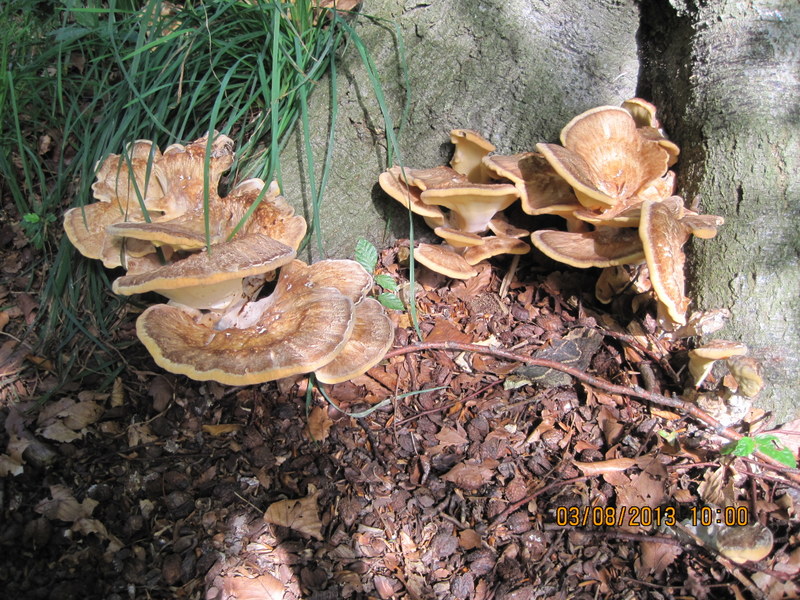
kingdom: Fungi
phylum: Basidiomycota
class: Agaricomycetes
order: Polyporales
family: Meripilaceae
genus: Meripilus
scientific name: Meripilus giganteus
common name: kæmpeporesvamp
